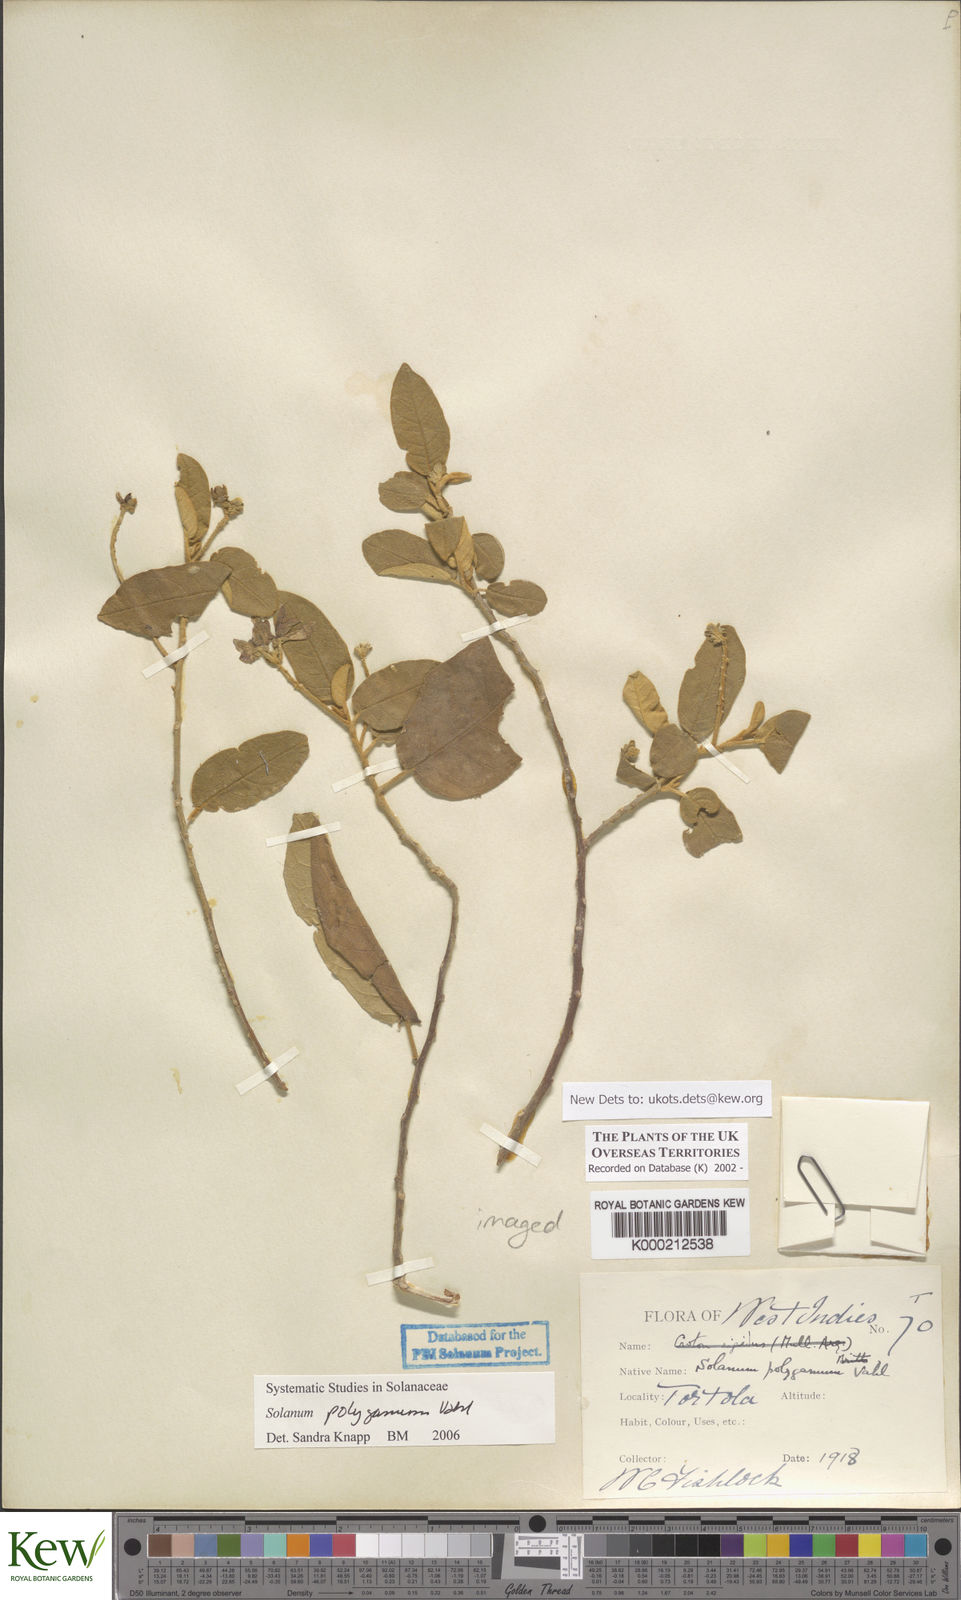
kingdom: Plantae
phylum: Tracheophyta
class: Magnoliopsida
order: Solanales
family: Solanaceae
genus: Solanum
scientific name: Solanum polygamum
